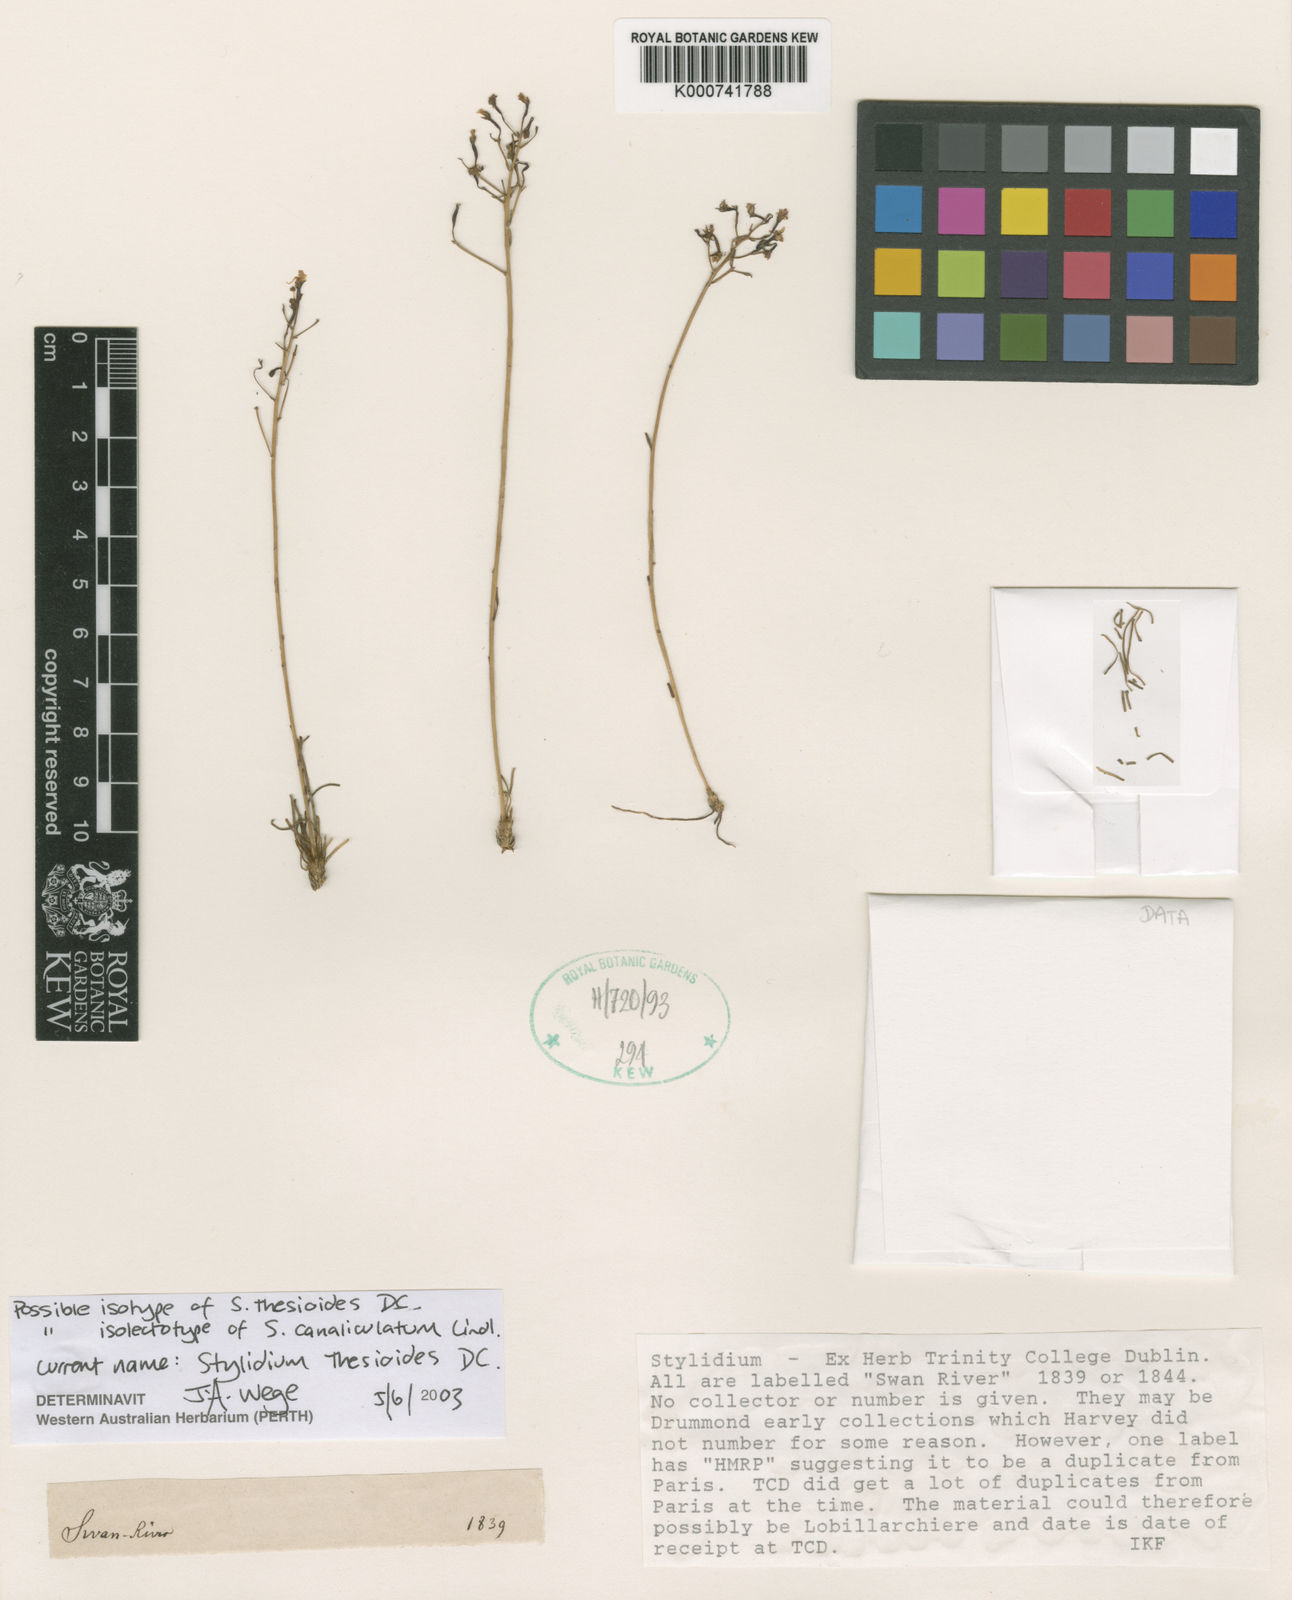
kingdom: Plantae
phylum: Tracheophyta
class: Magnoliopsida
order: Asterales
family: Stylidiaceae
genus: Stylidium
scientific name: Stylidium thesioides
